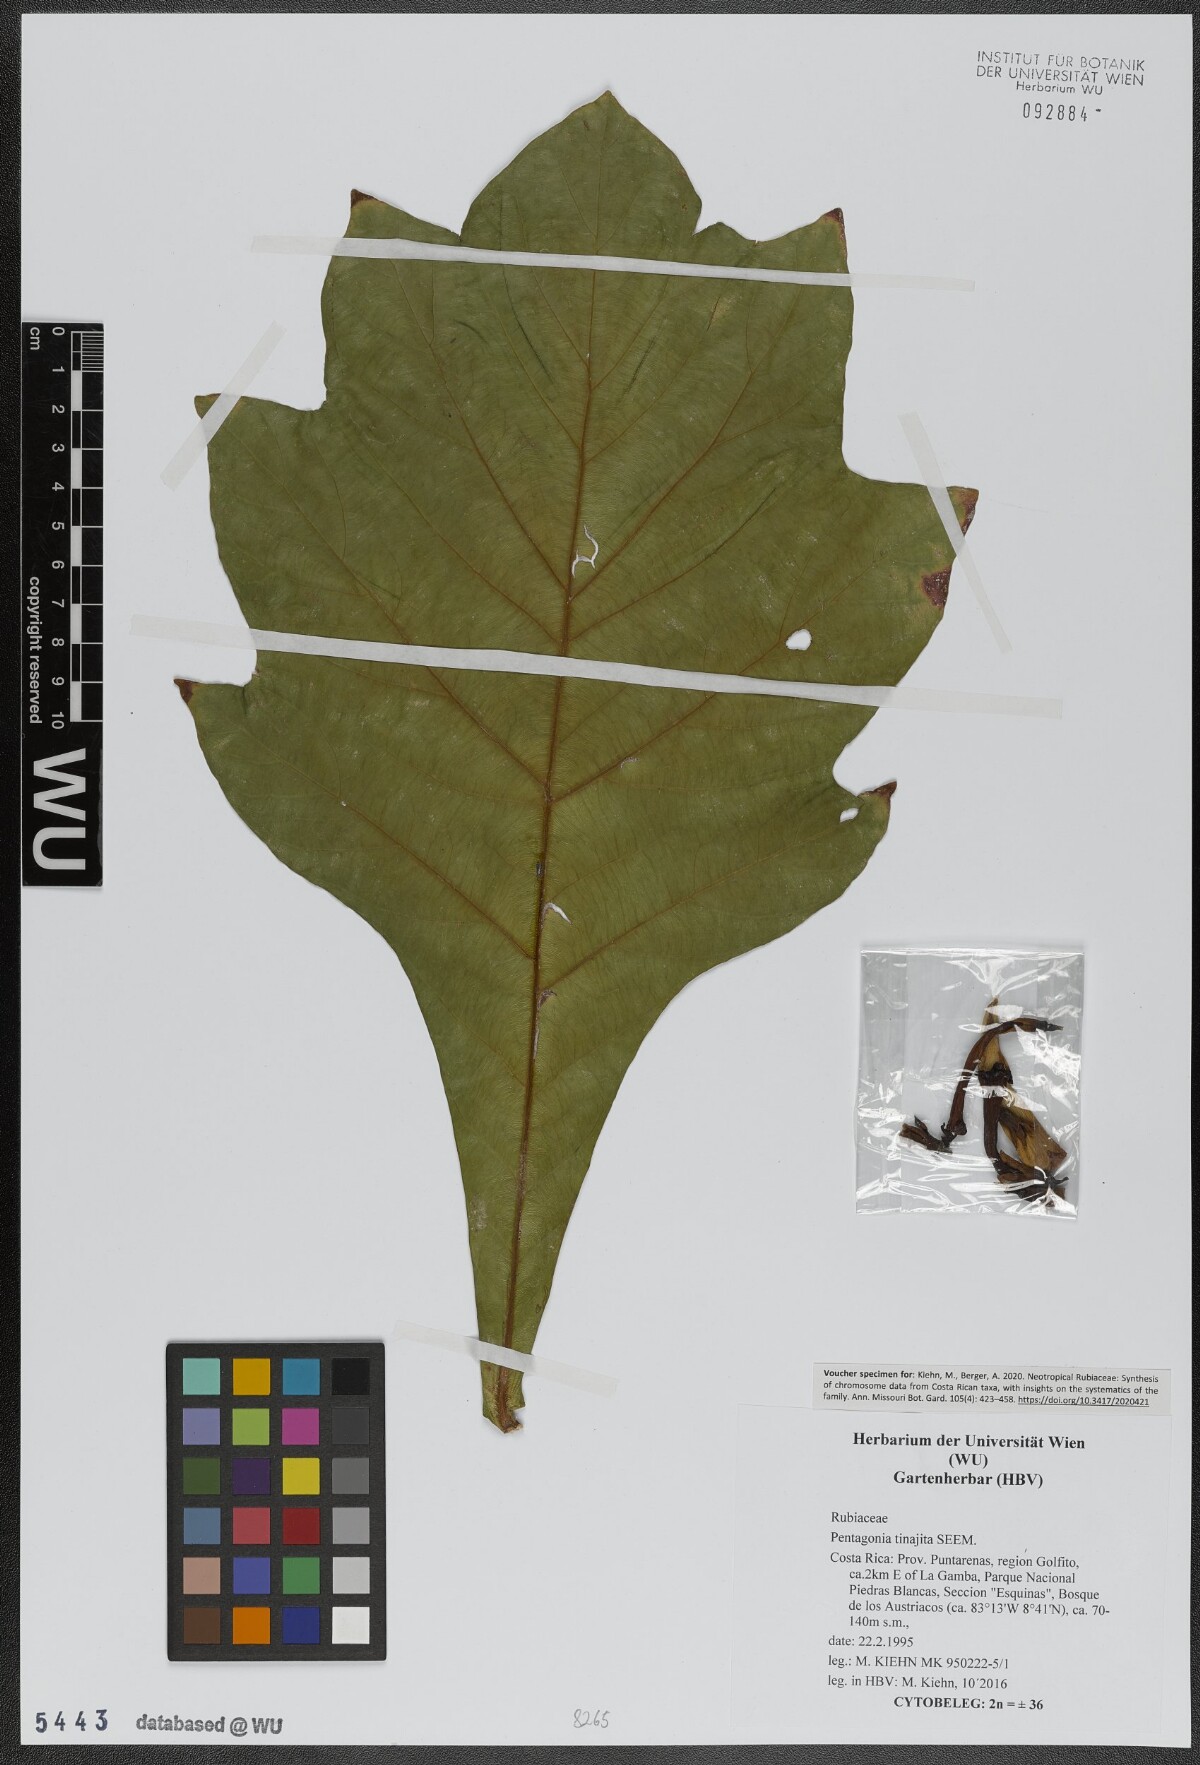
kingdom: Plantae
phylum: Tracheophyta
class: Magnoliopsida
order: Gentianales
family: Rubiaceae
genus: Pentagonia
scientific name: Pentagonia tinajita
